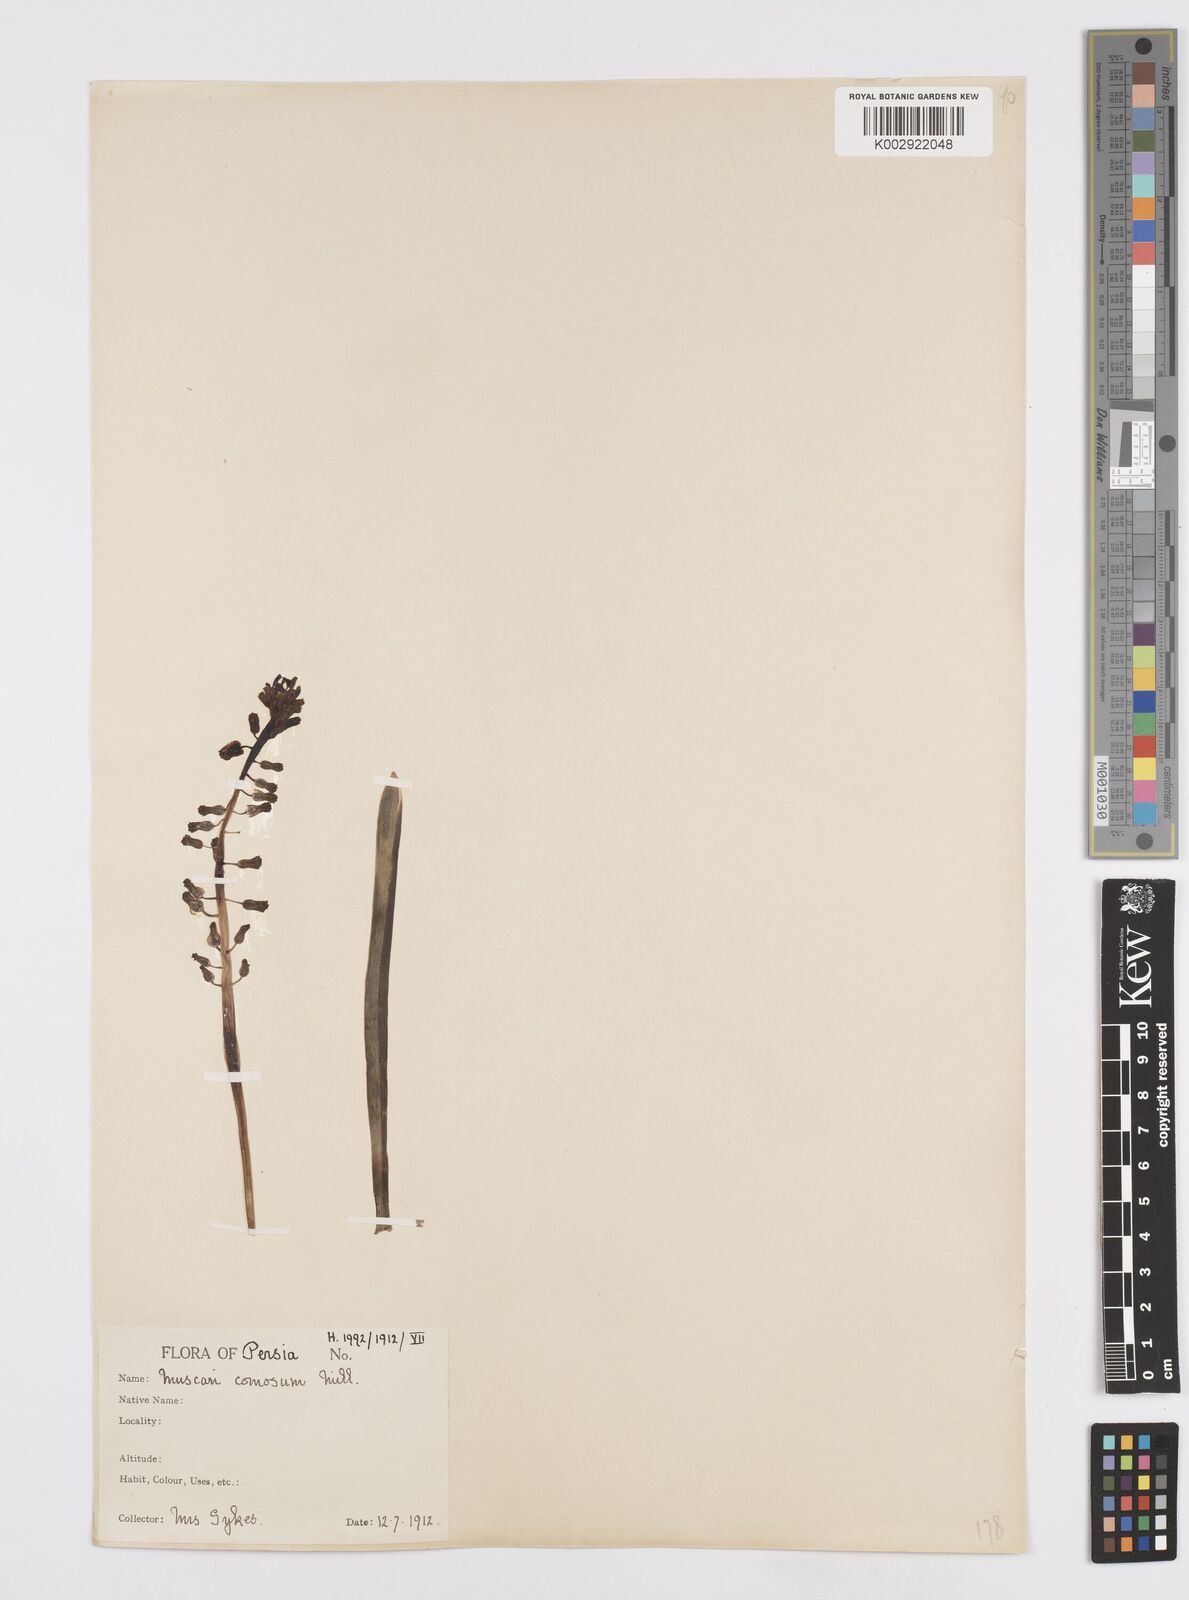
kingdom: Animalia
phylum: Mollusca
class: Cephalopoda
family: Neocomitidae
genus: Leopoldia
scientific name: Leopoldia
